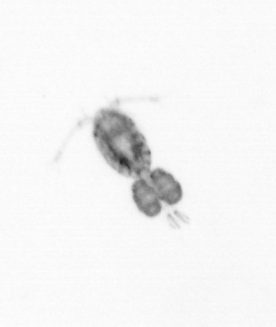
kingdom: Animalia
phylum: Arthropoda
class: Copepoda
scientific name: Copepoda
